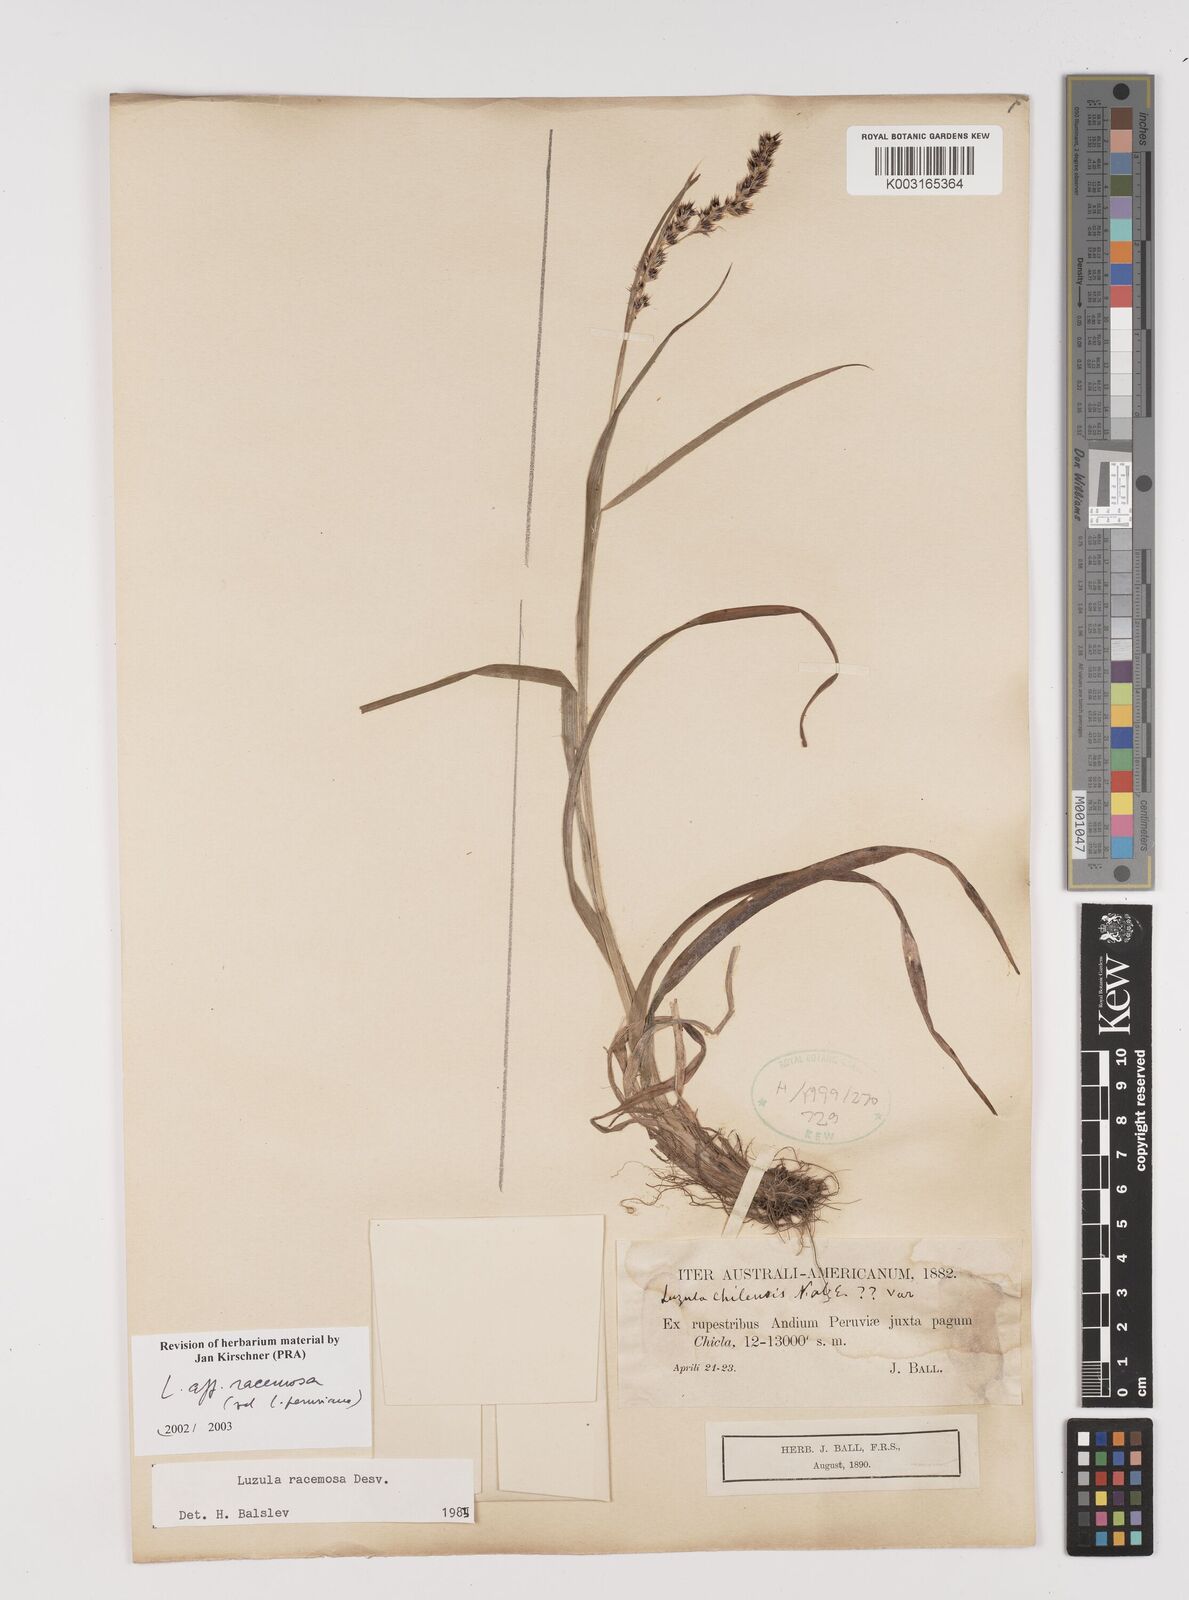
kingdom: Plantae
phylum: Tracheophyta
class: Liliopsida
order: Poales
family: Juncaceae
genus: Luzula
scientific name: Luzula racemosa
